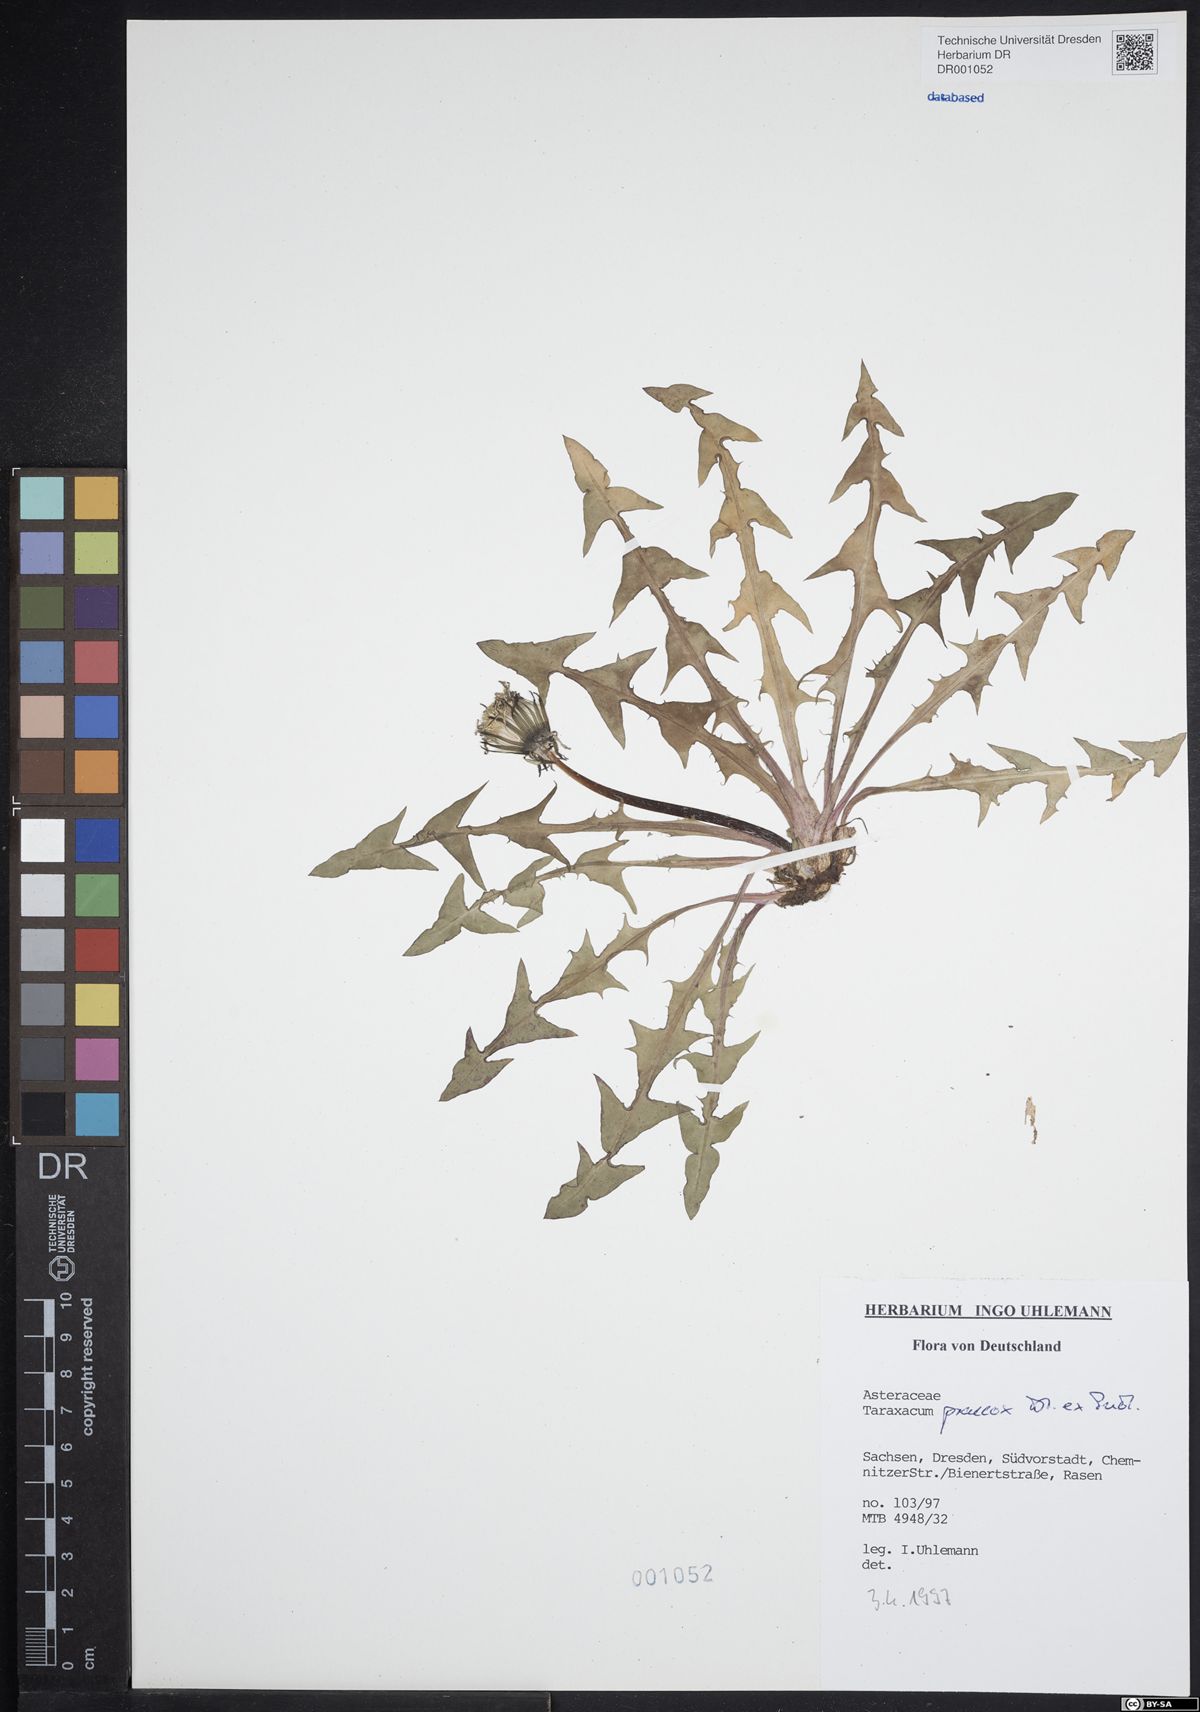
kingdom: Plantae
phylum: Tracheophyta
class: Magnoliopsida
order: Asterales
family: Asteraceae
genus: Taraxacum
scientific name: Taraxacum praecox
